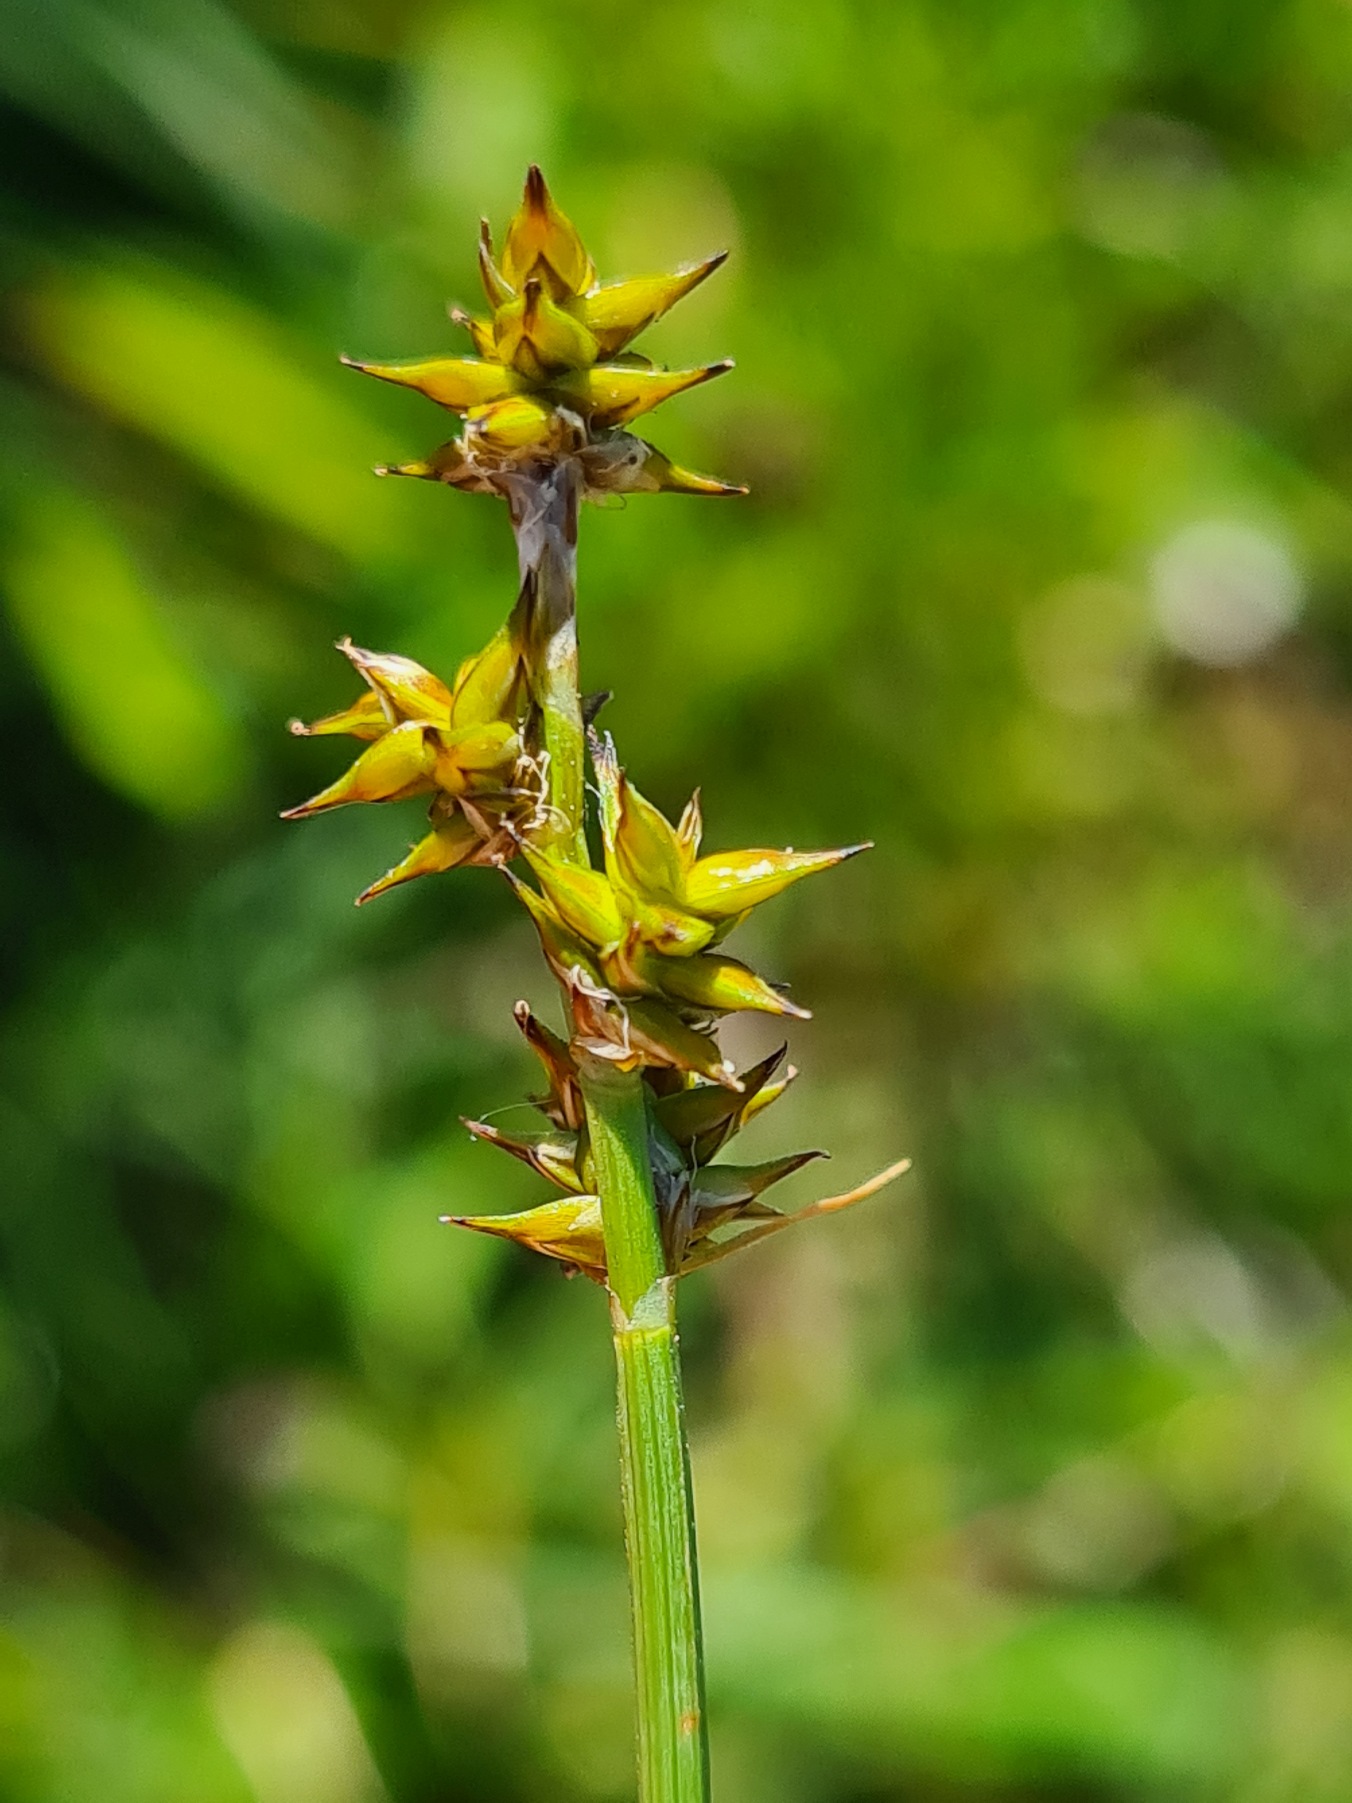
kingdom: Plantae
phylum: Tracheophyta
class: Liliopsida
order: Poales
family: Cyperaceae
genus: Carex
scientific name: Carex echinata
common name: Stjerne-star
